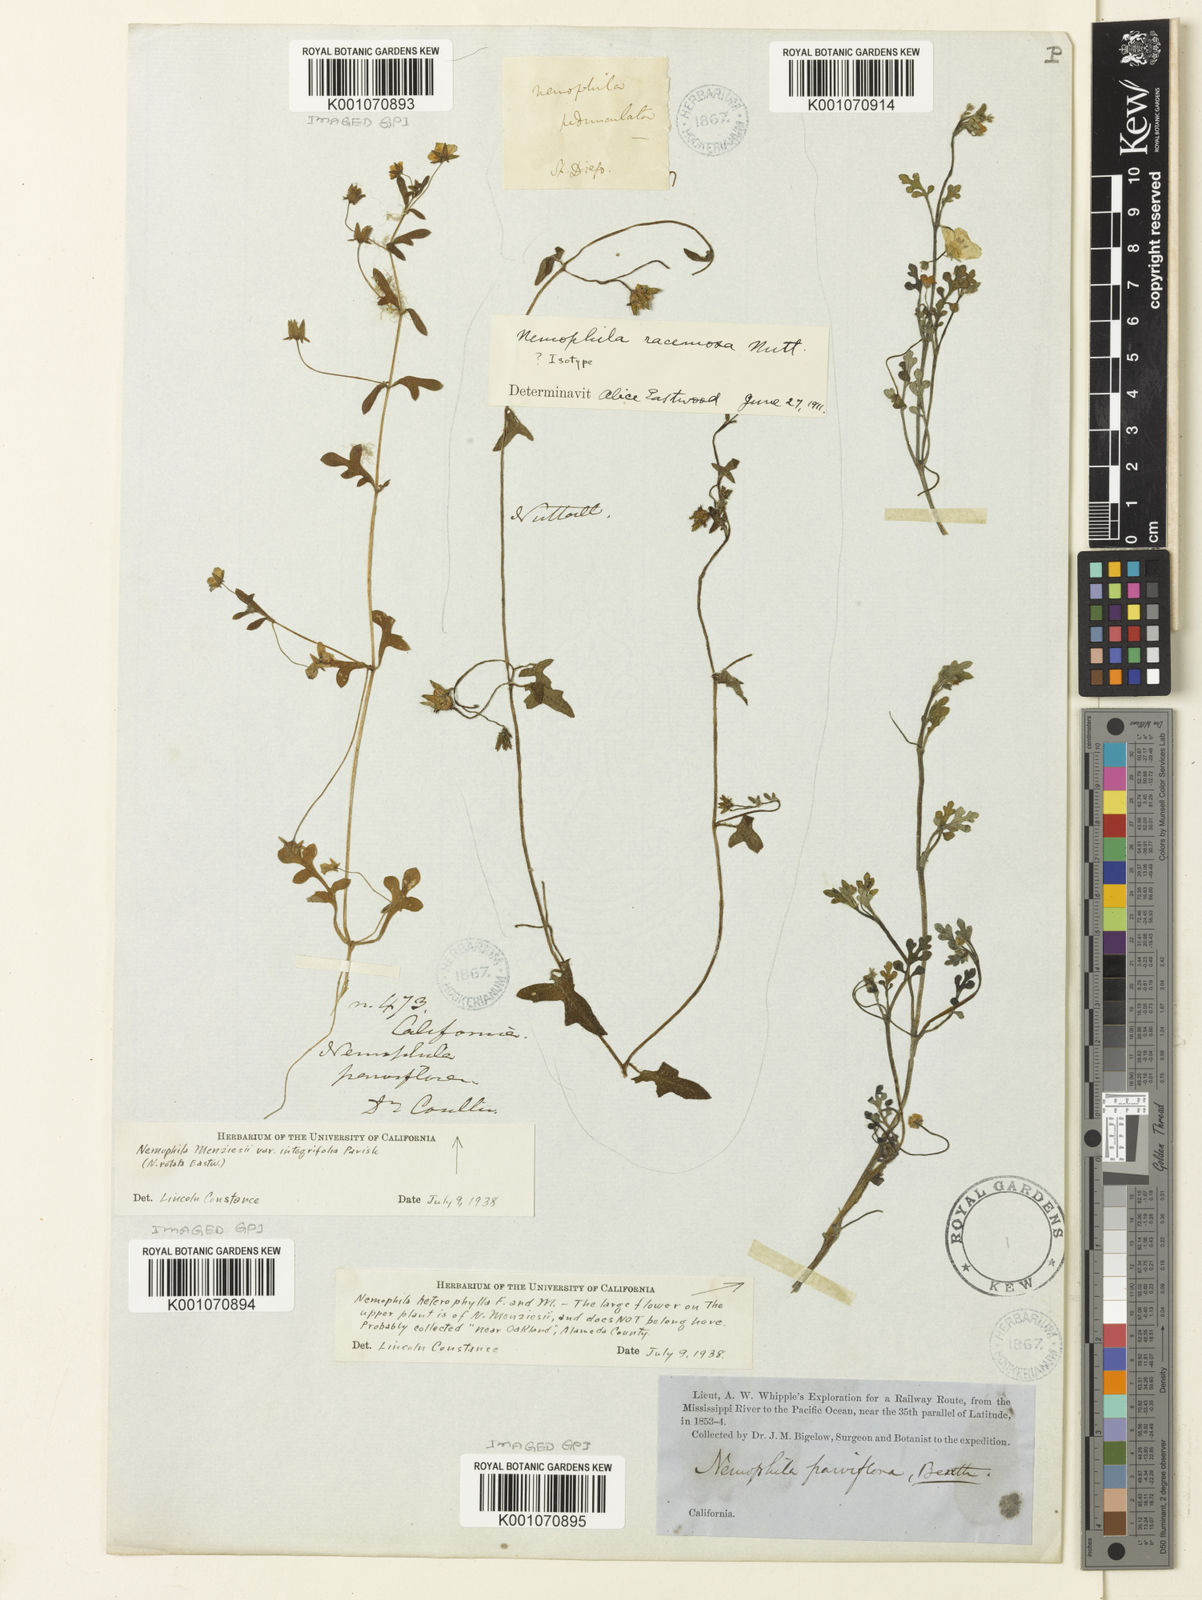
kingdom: Plantae
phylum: Tracheophyta
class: Magnoliopsida
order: Boraginales
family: Hydrophyllaceae
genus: Pholistoma
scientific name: Pholistoma racemosum
